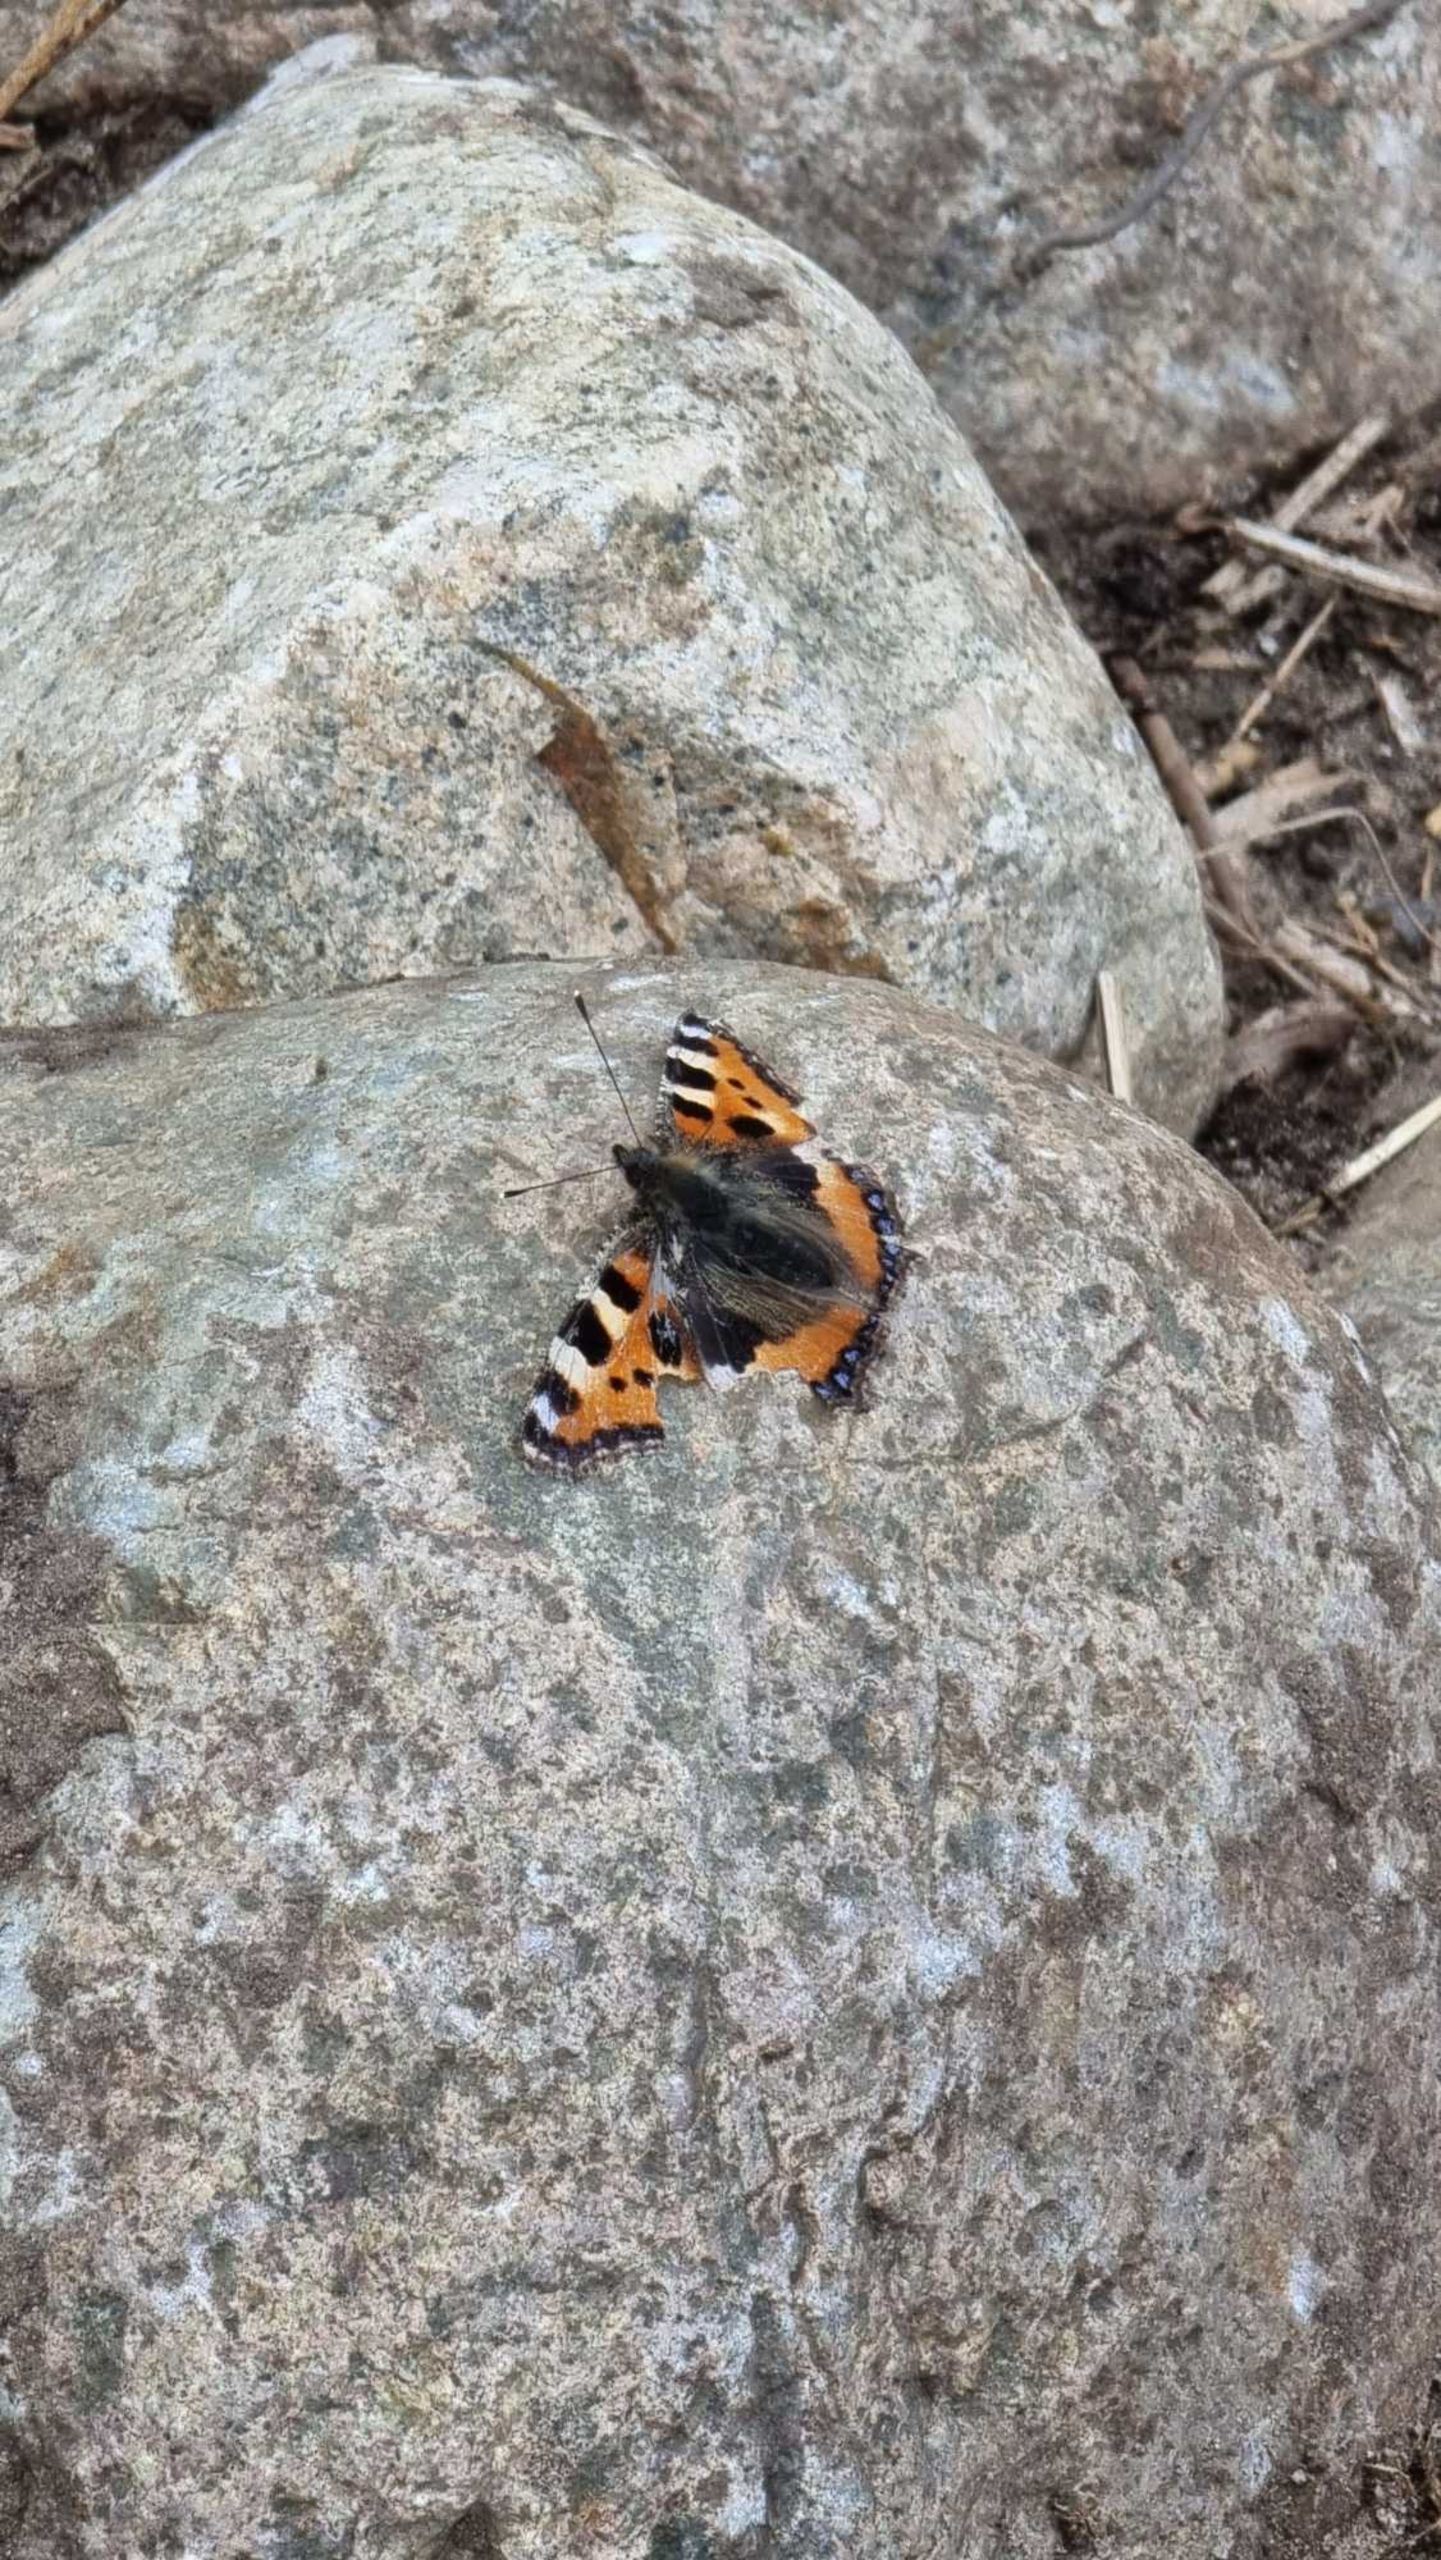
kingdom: Animalia
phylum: Arthropoda
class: Insecta
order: Lepidoptera
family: Nymphalidae
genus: Aglais
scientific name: Aglais urticae
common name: Nældens takvinge
